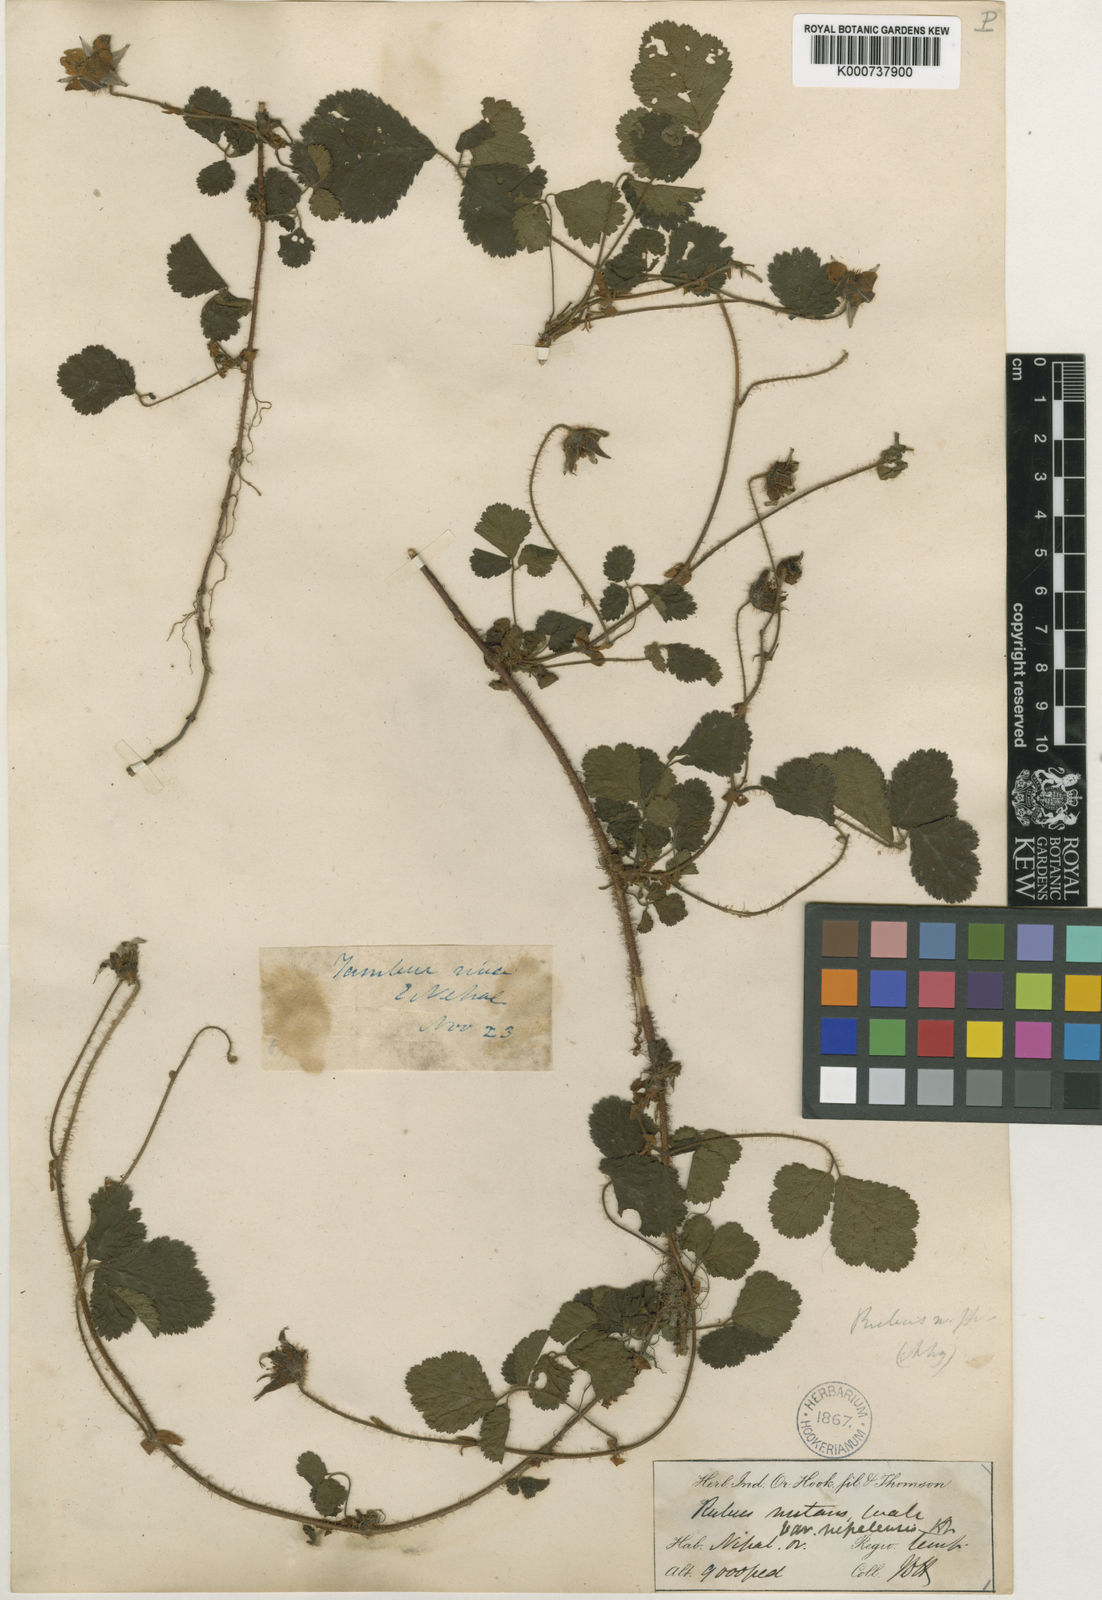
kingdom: Plantae
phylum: Tracheophyta
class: Magnoliopsida
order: Rosales
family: Rosaceae
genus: Rubus
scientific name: Rubus nepalensis
